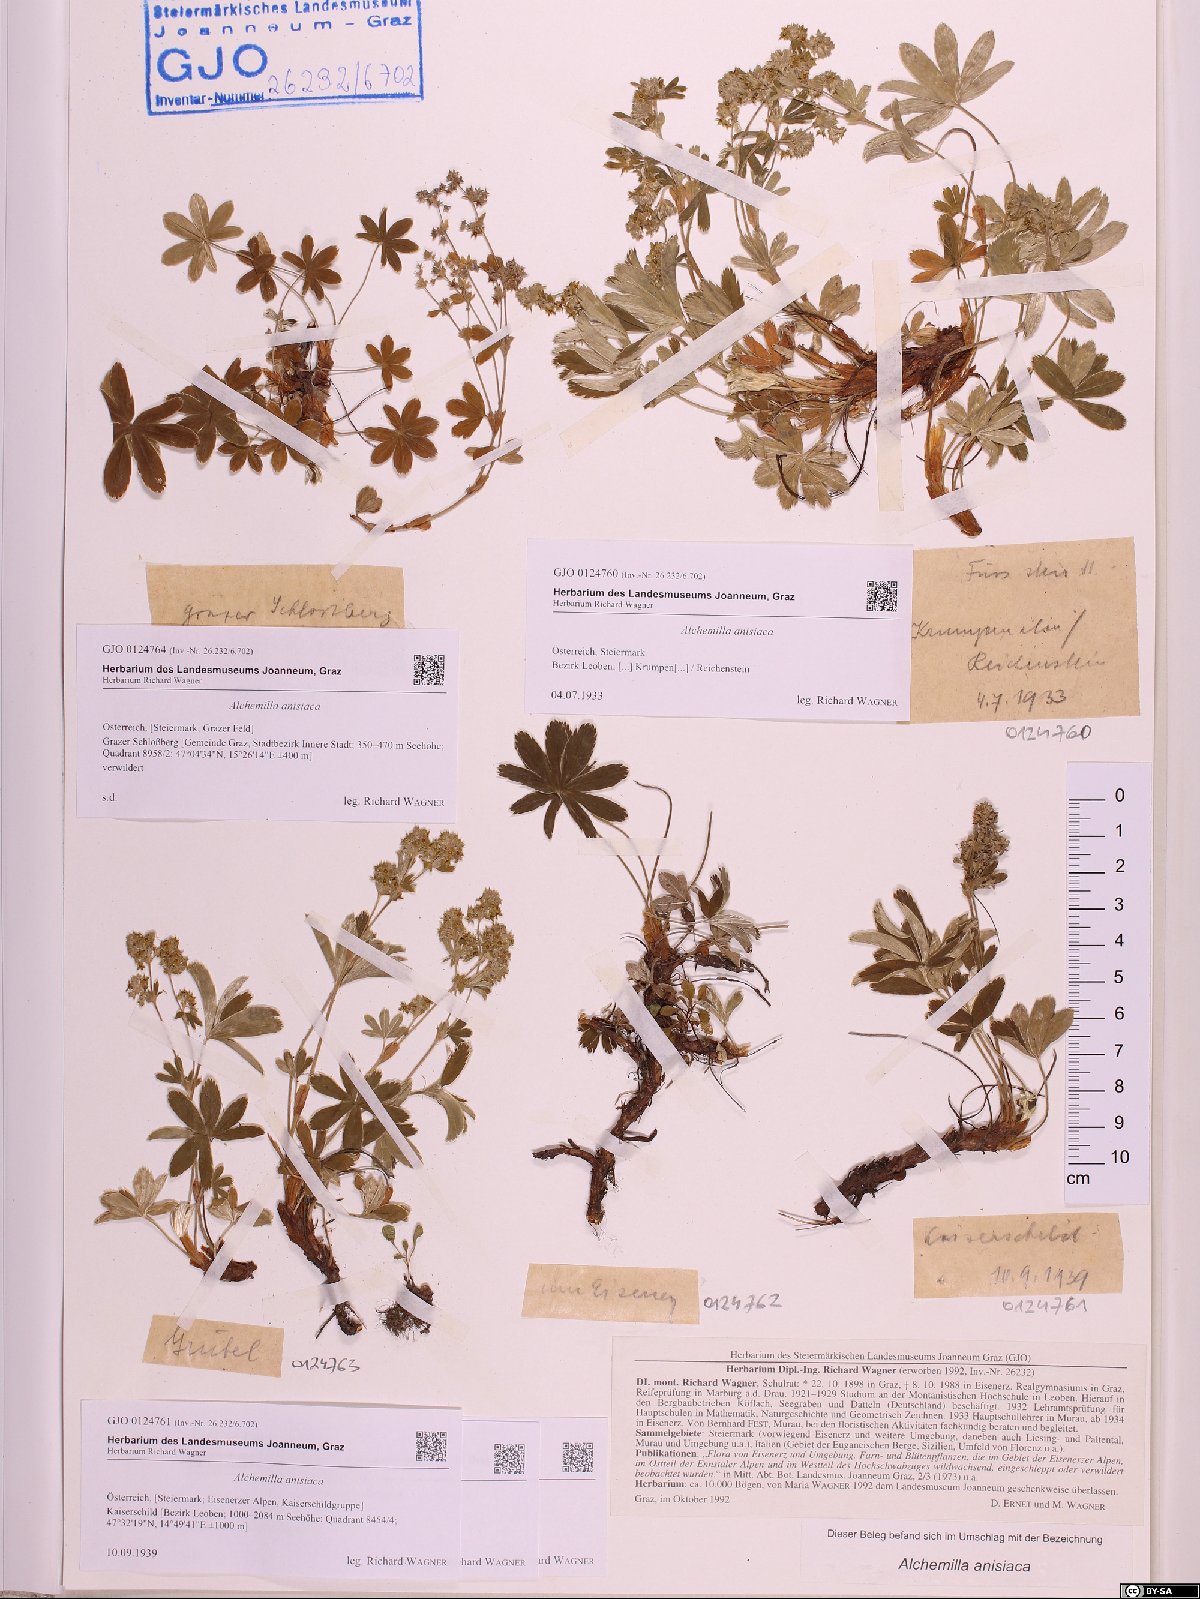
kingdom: Plantae
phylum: Tracheophyta
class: Magnoliopsida
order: Rosales
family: Rosaceae
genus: Alchemilla
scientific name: Alchemilla anisiaca
